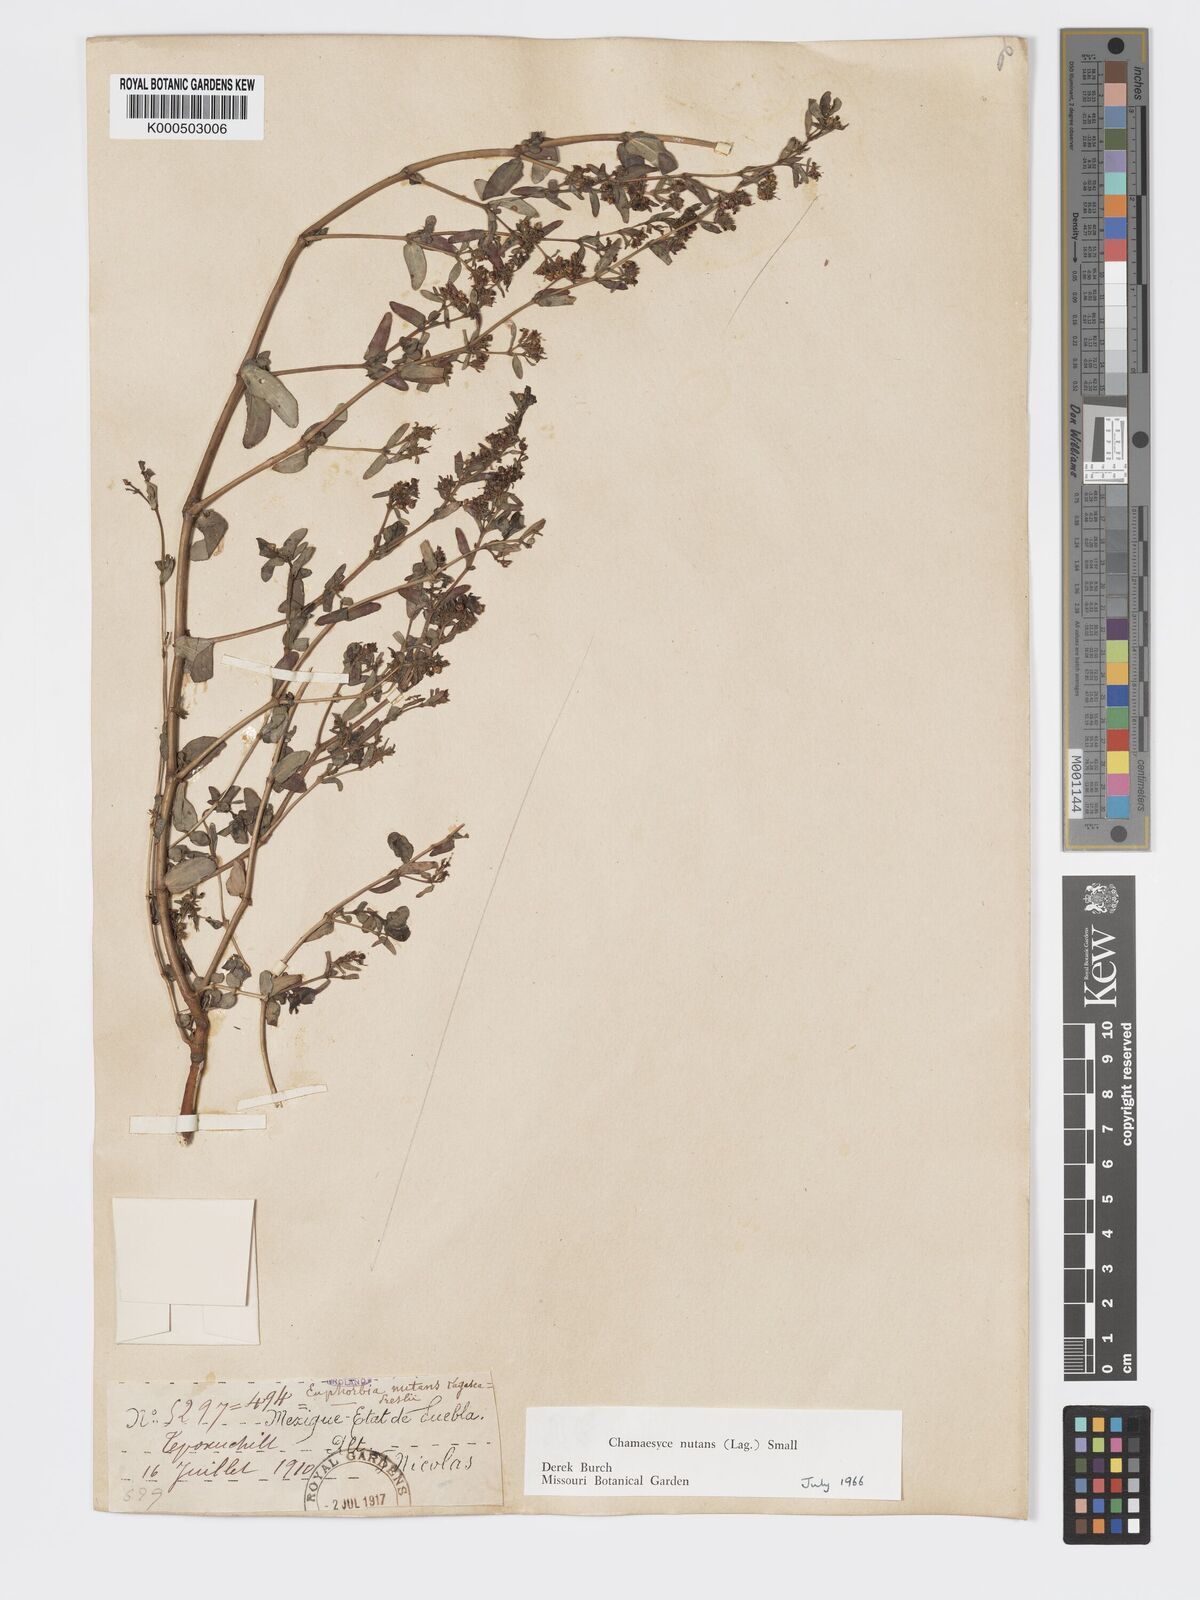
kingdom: Plantae
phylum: Tracheophyta
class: Magnoliopsida
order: Malpighiales
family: Euphorbiaceae
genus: Euphorbia
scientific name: Euphorbia nutans
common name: Eyebane
